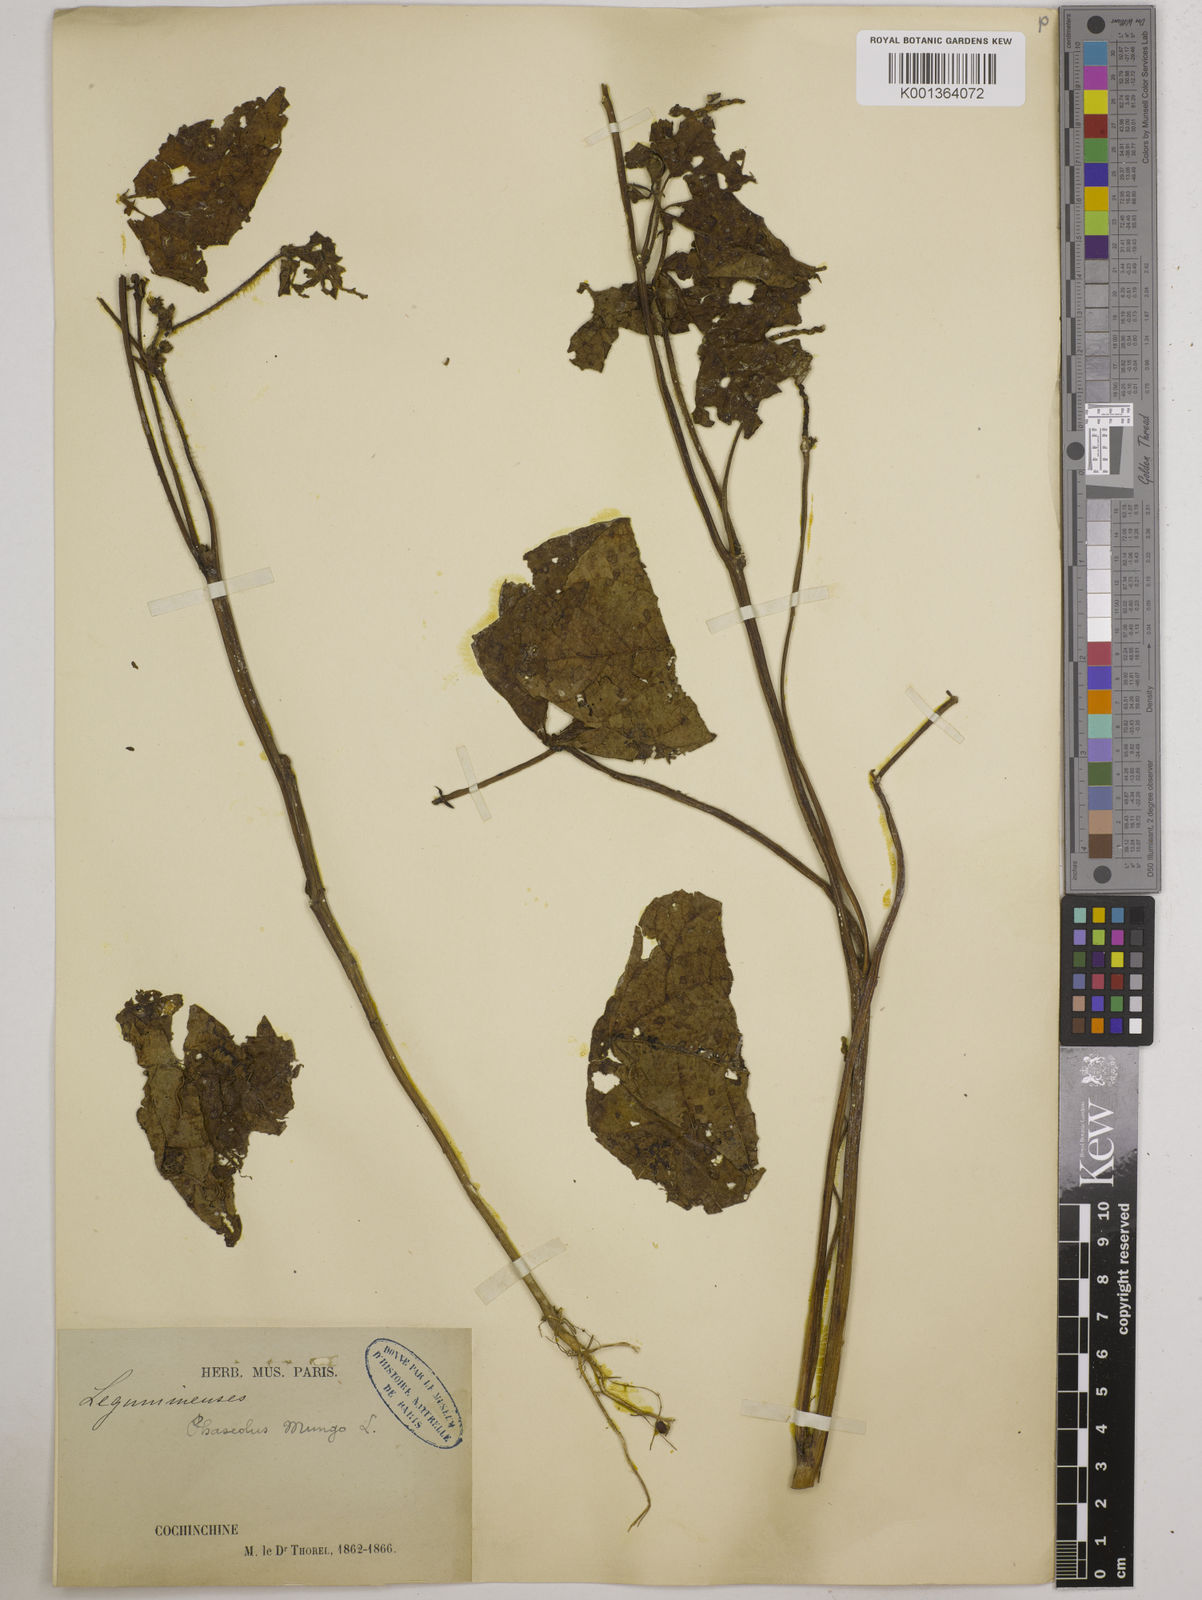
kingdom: Plantae
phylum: Tracheophyta
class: Magnoliopsida
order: Fabales
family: Fabaceae
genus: Vigna
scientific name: Vigna
